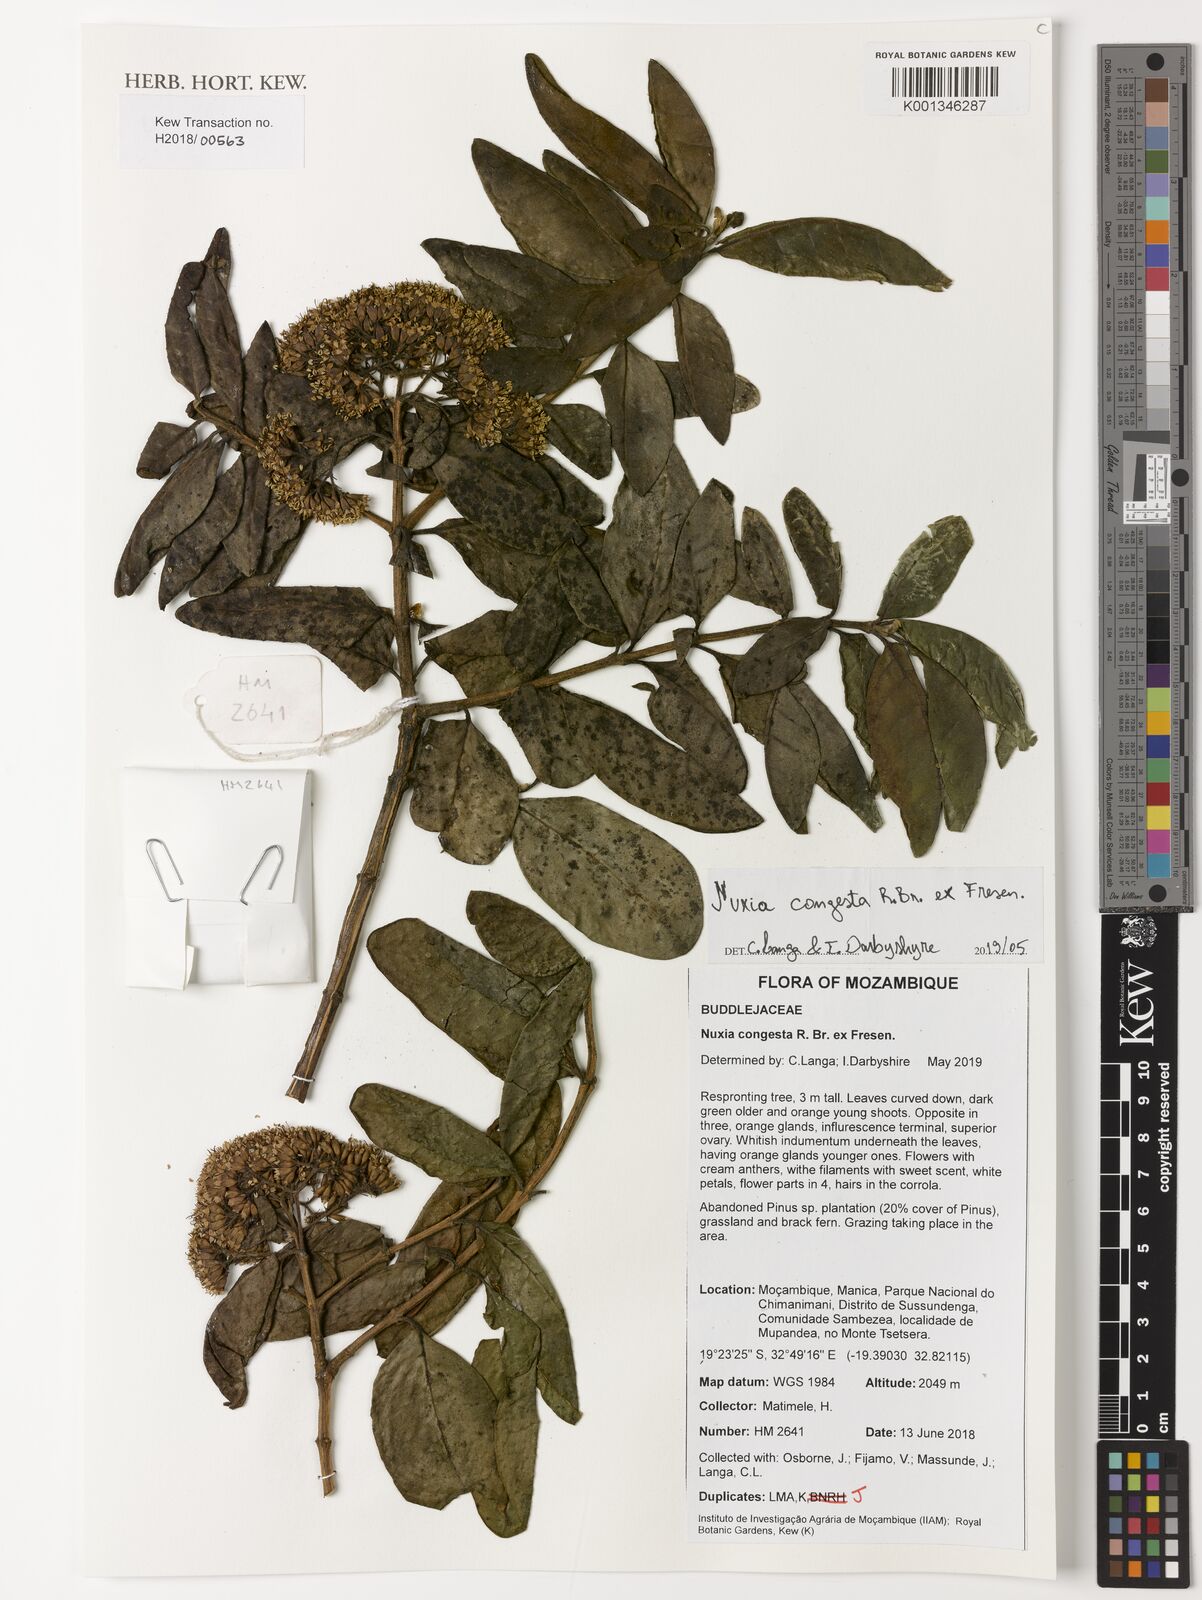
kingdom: Plantae
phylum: Tracheophyta
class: Magnoliopsida
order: Lamiales
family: Stilbaceae
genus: Nuxia
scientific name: Nuxia congesta
